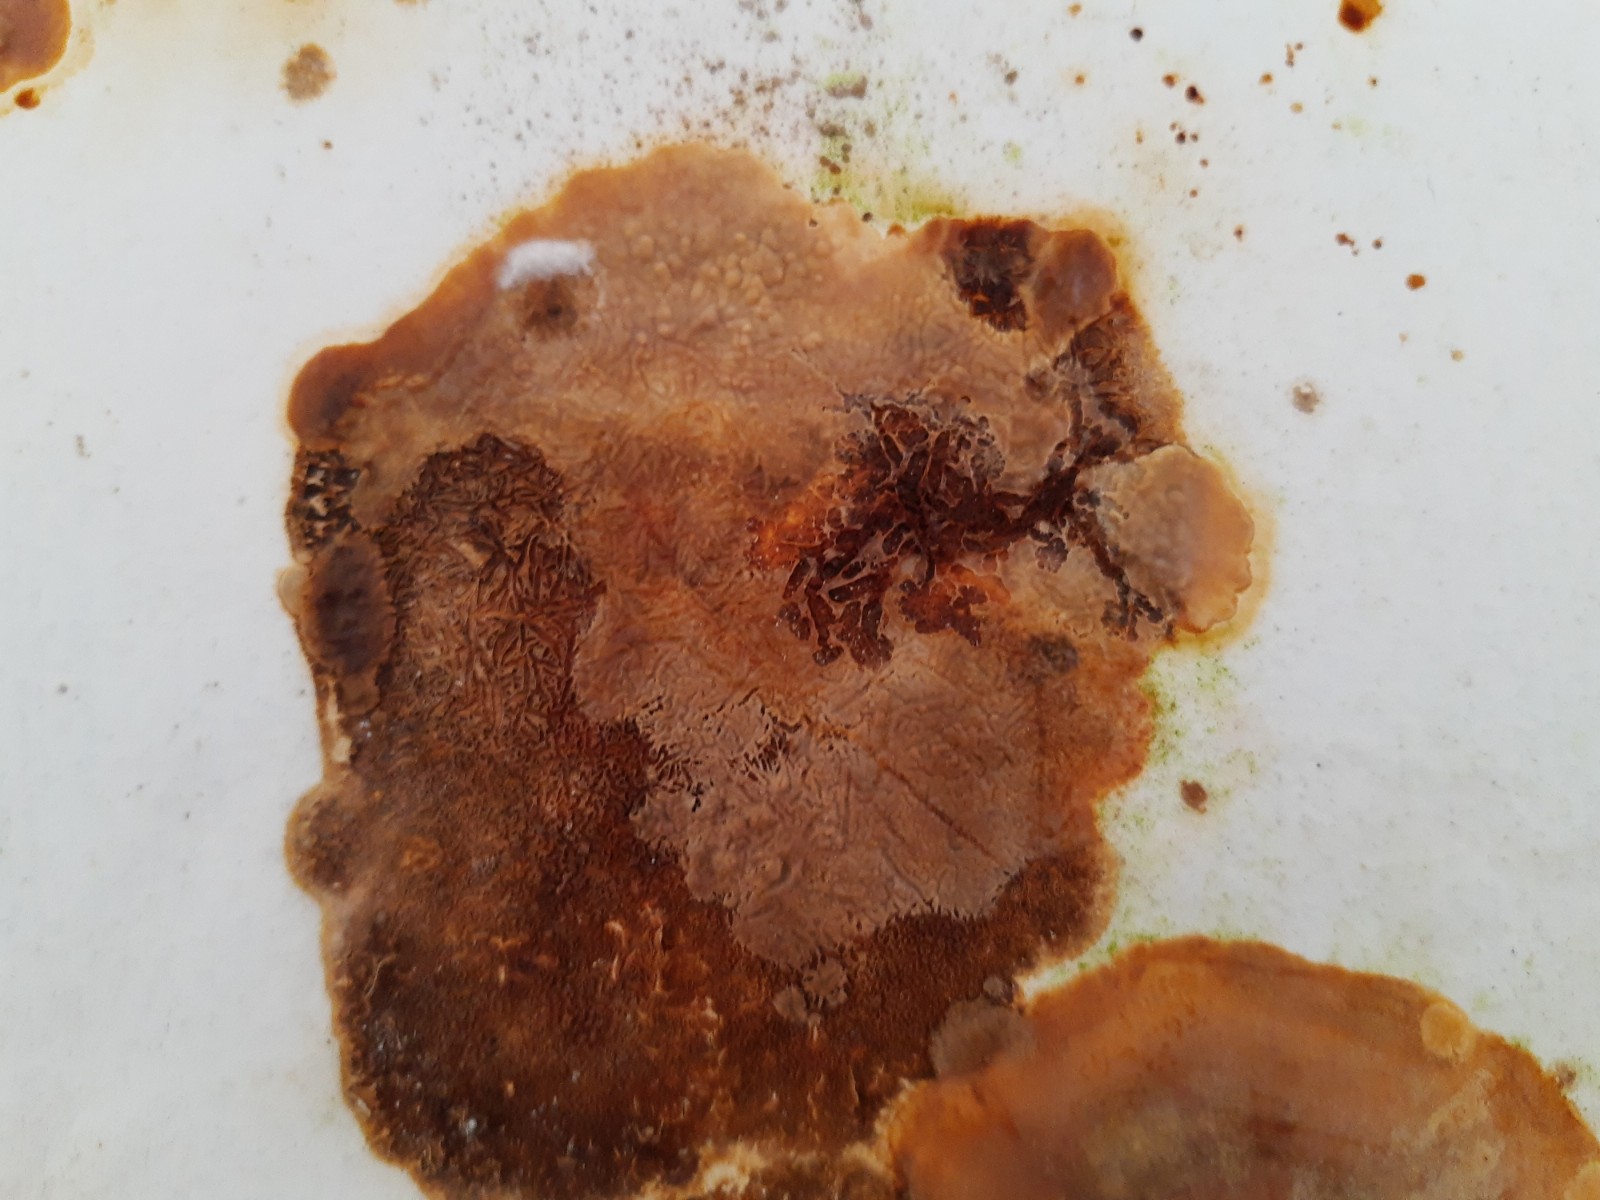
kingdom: Fungi
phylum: Basidiomycota
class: Agaricomycetes
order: Corticiales
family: Corticiaceae
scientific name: Corticiaceae
